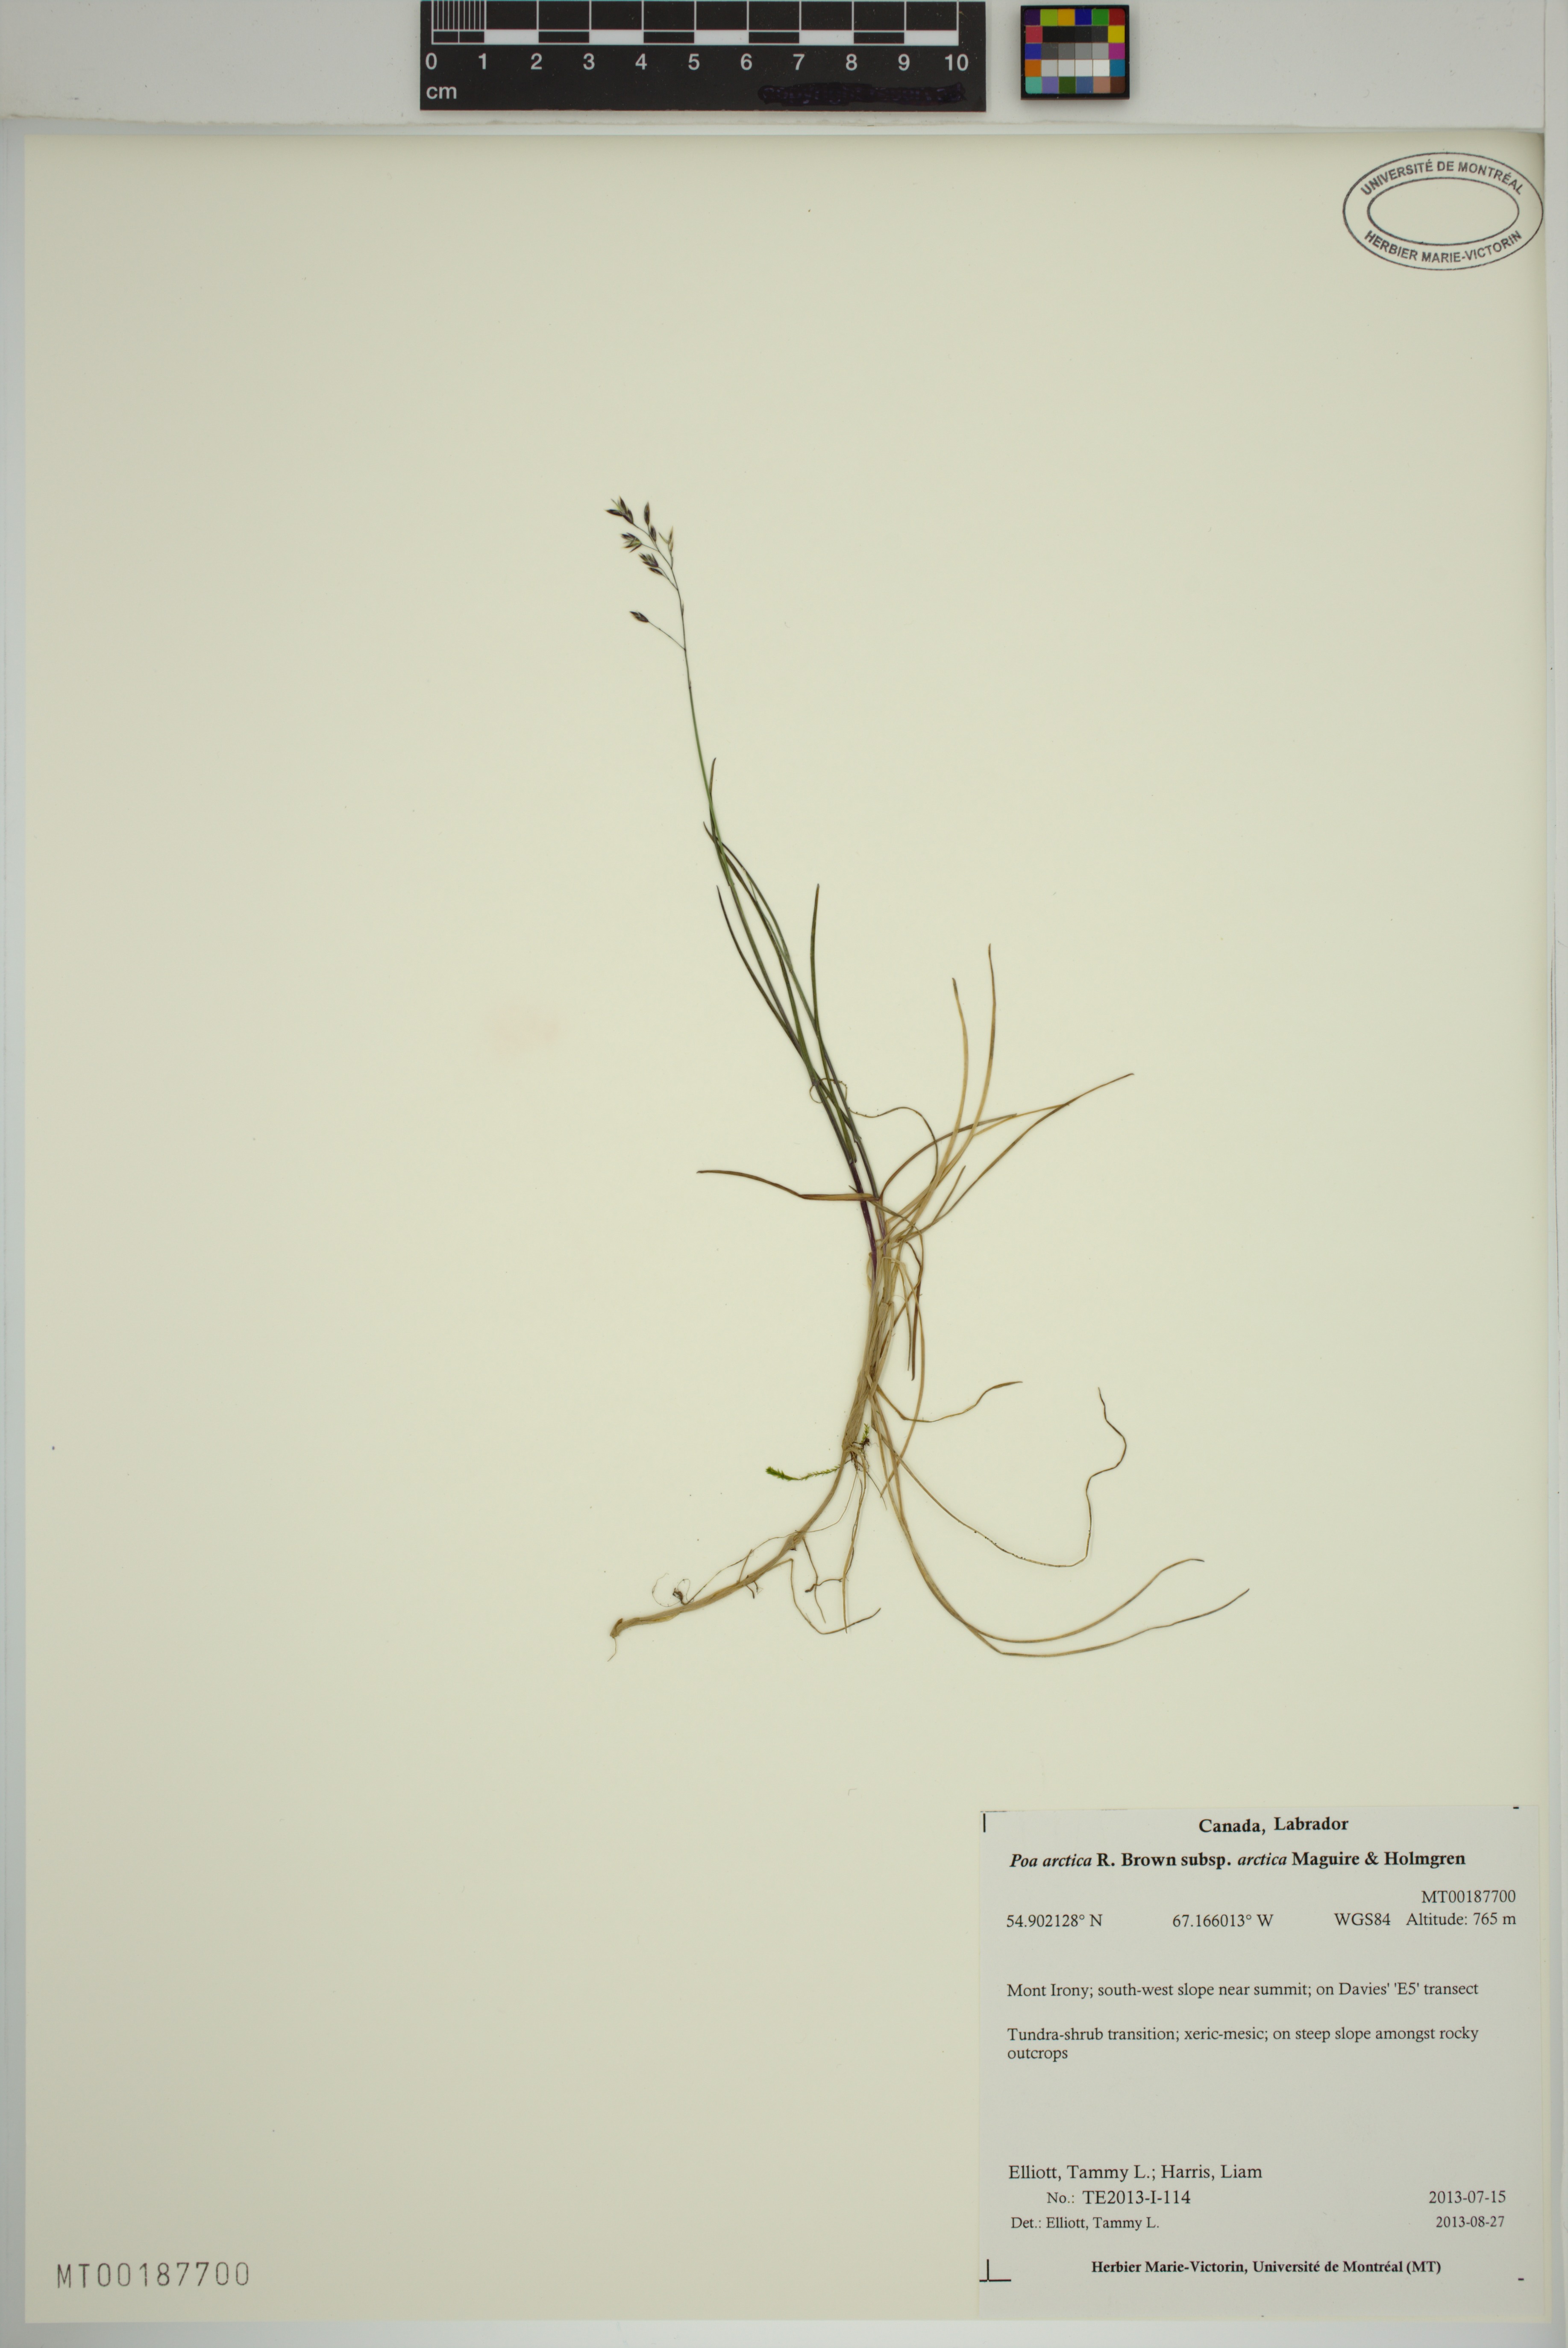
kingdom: Plantae
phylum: Tracheophyta
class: Liliopsida
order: Poales
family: Poaceae
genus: Poa
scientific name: Poa arctica
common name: Arctic bluegrass
